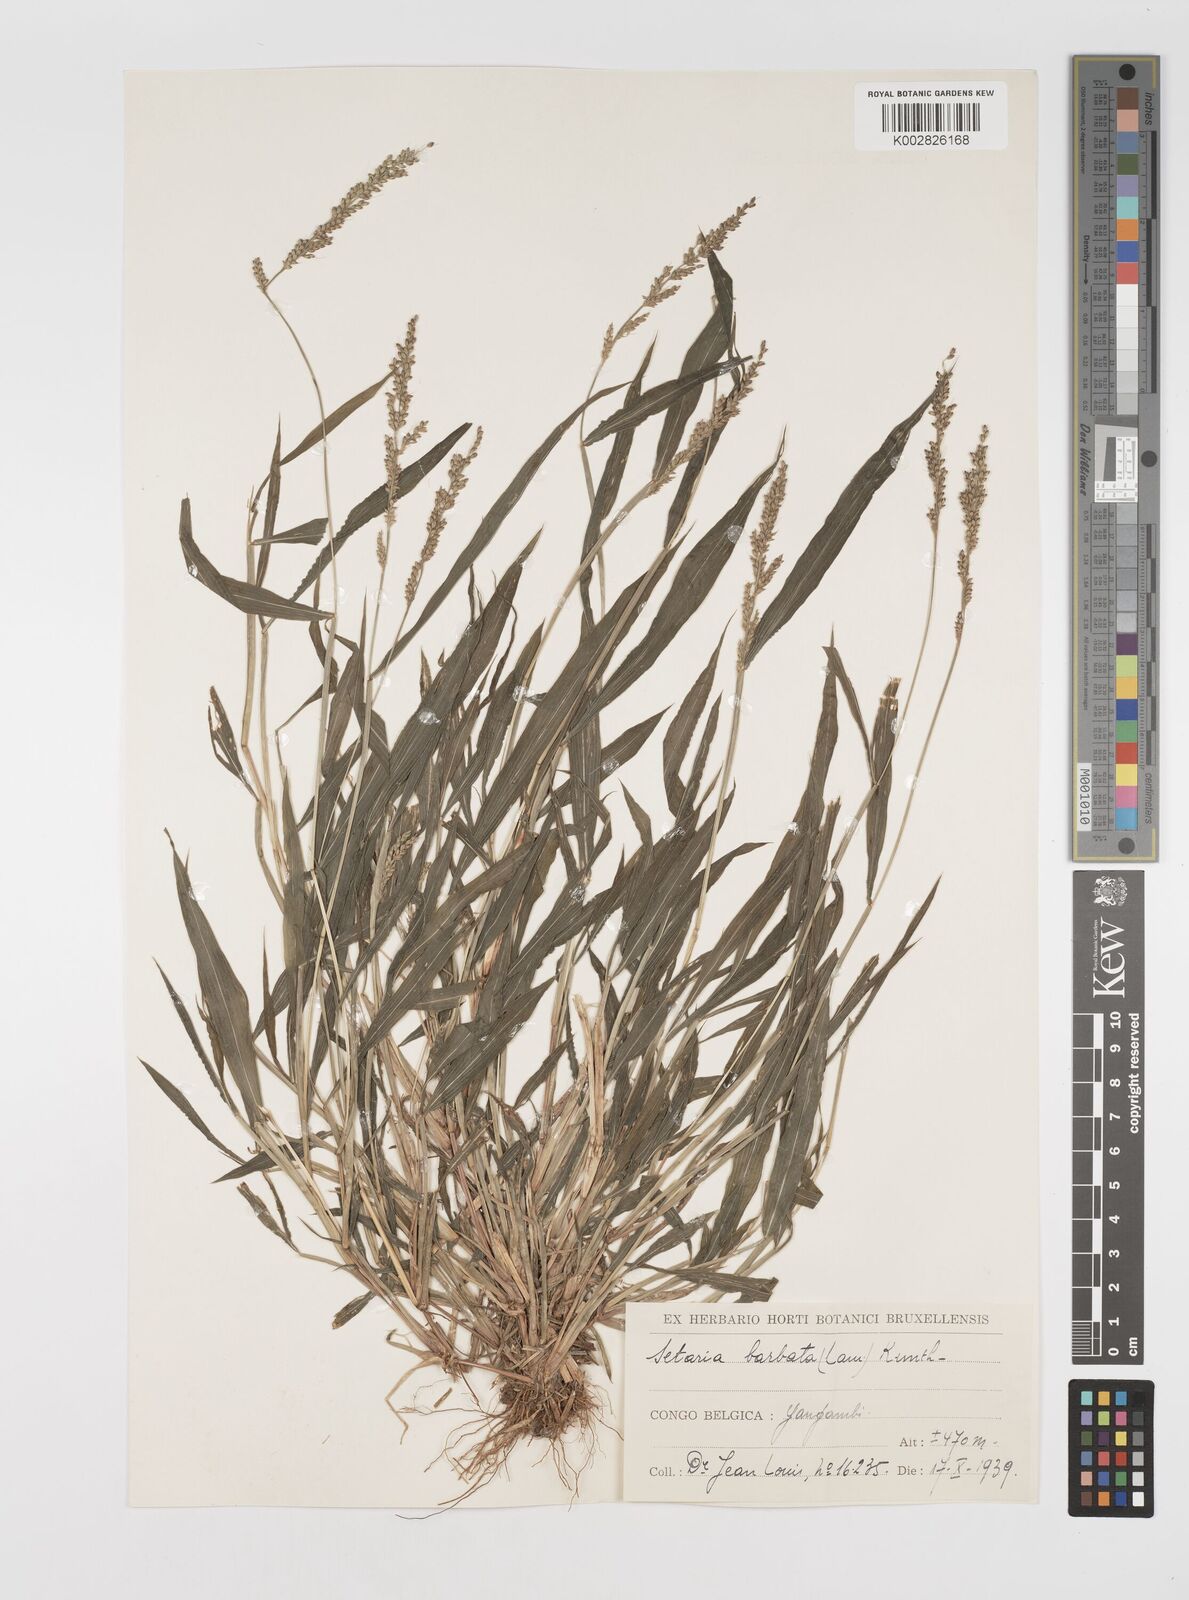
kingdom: Plantae
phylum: Tracheophyta
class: Liliopsida
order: Poales
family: Poaceae
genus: Setaria
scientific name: Setaria barbata
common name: East indian bristlegrass
